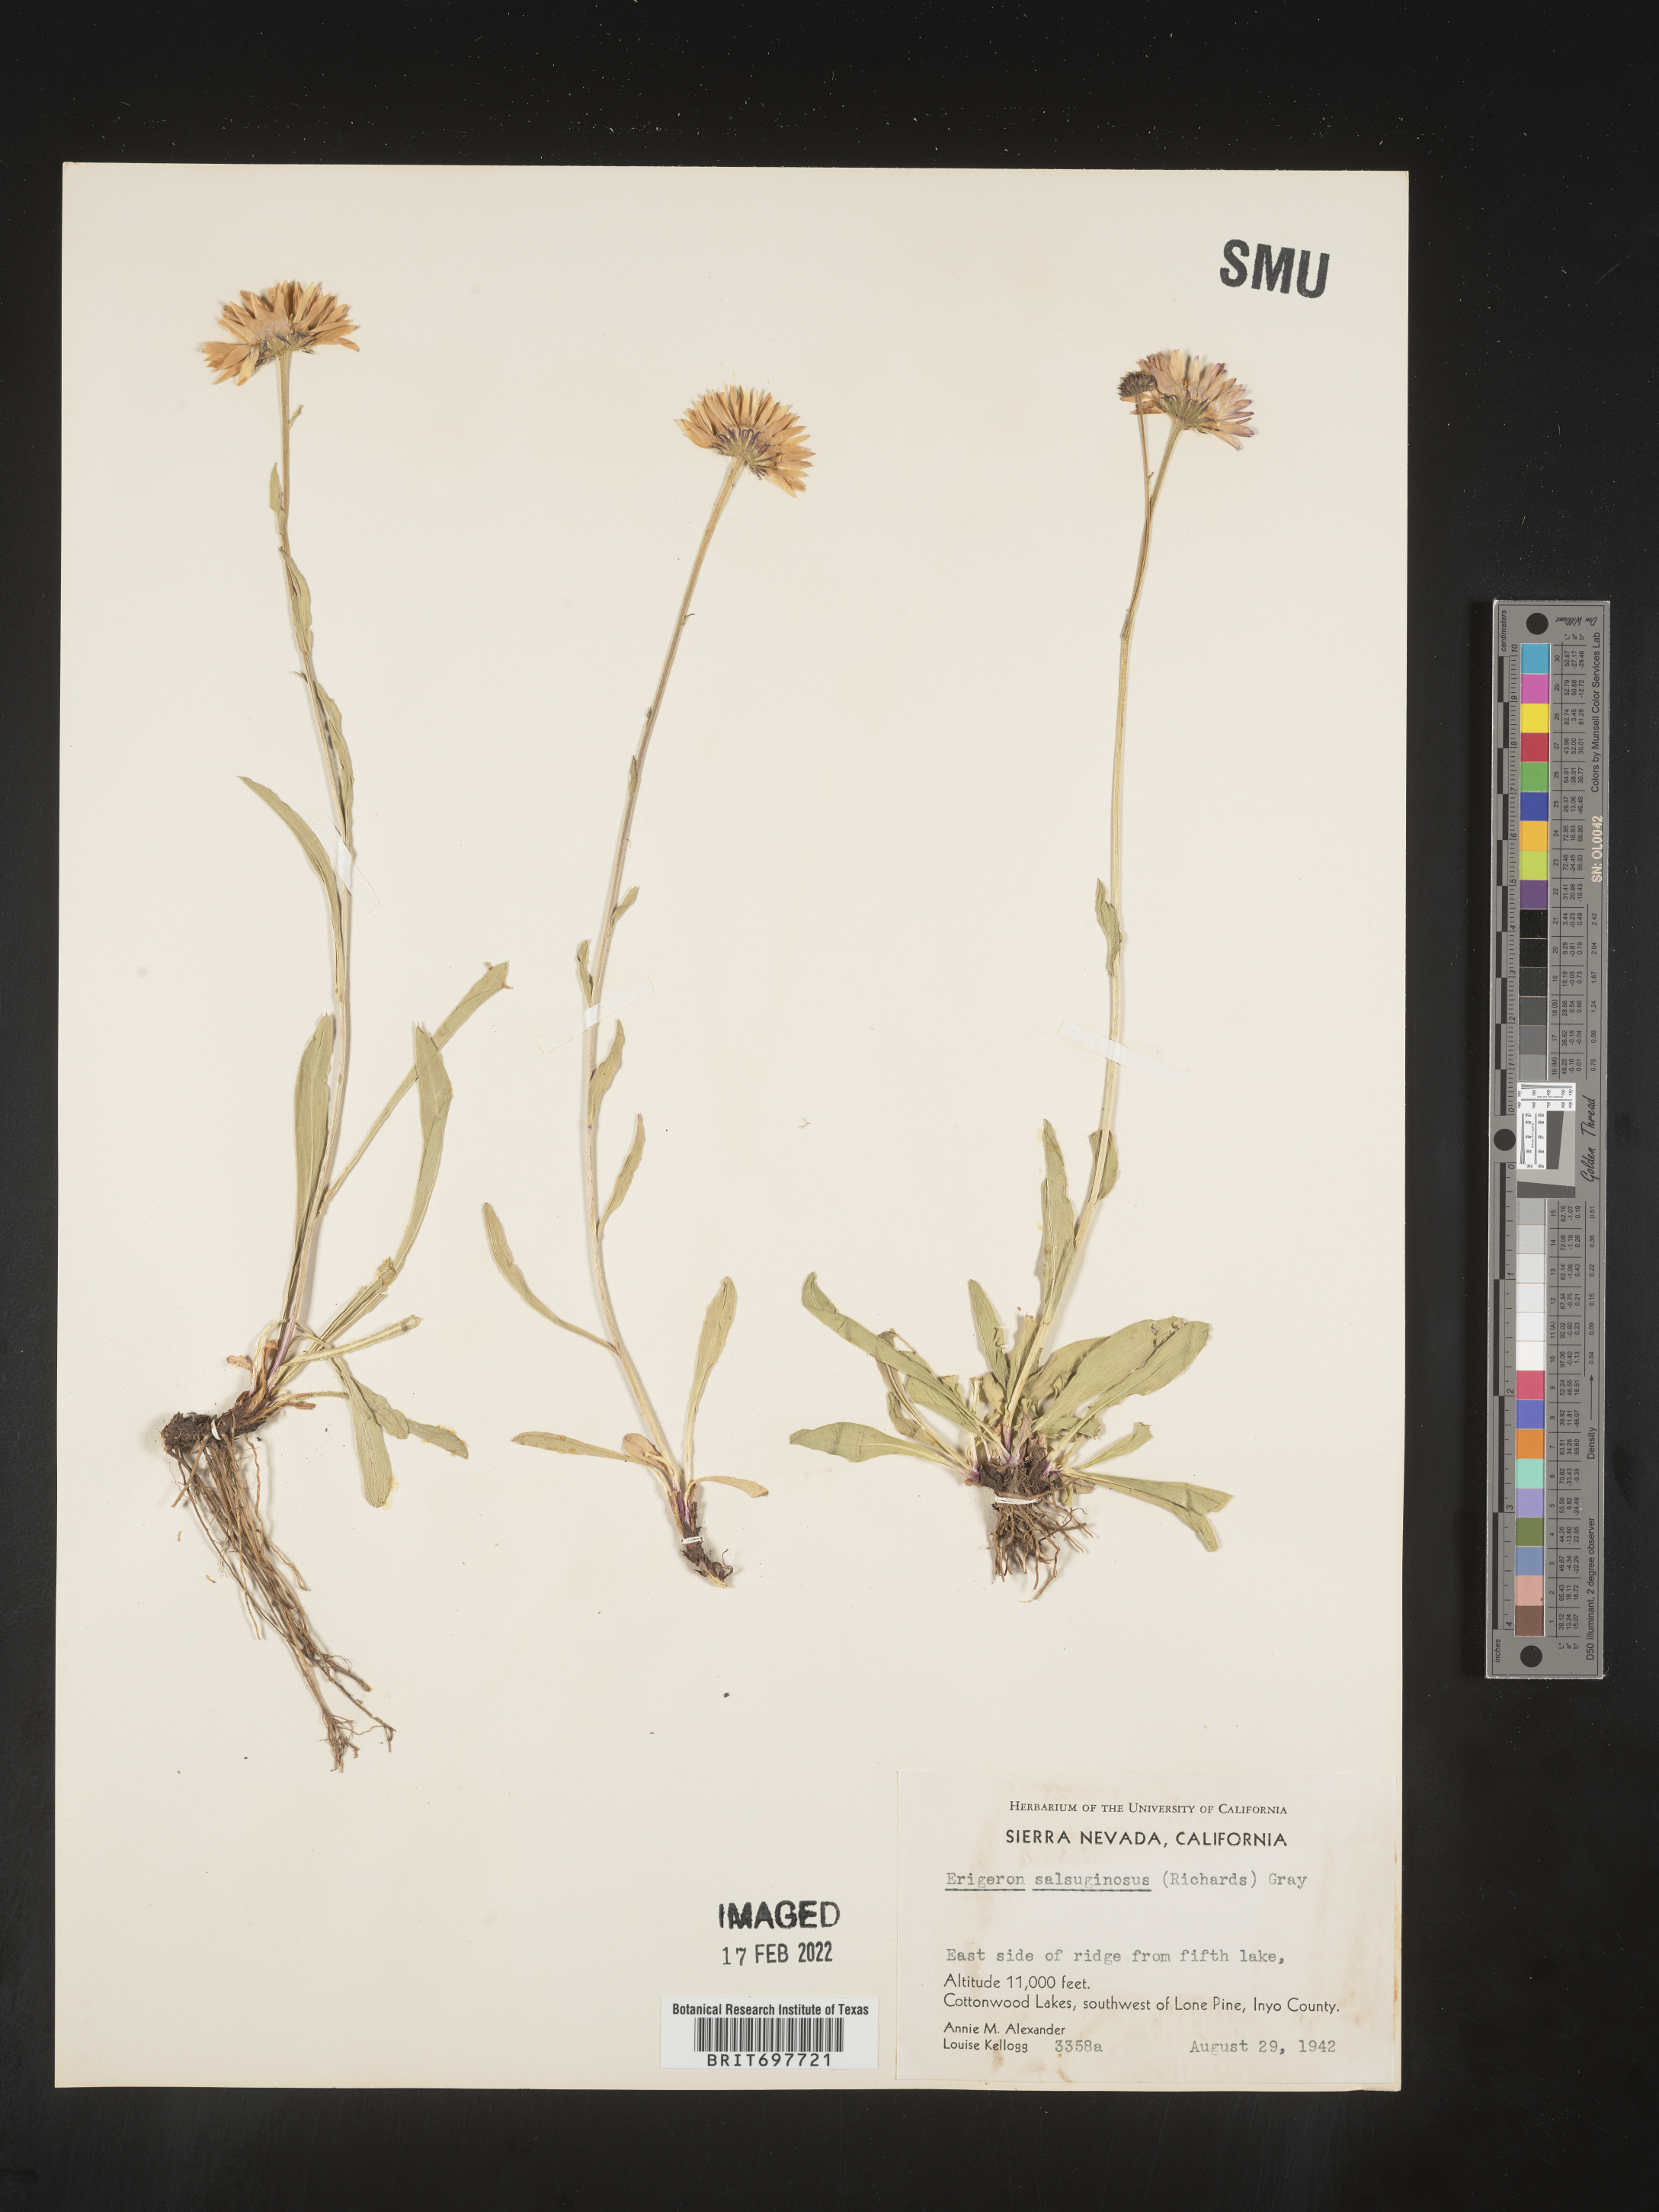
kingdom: Plantae
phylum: Tracheophyta
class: Magnoliopsida
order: Asterales
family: Asteraceae
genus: Erigeron
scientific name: Erigeron glacialis
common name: Subalpine fleabane
